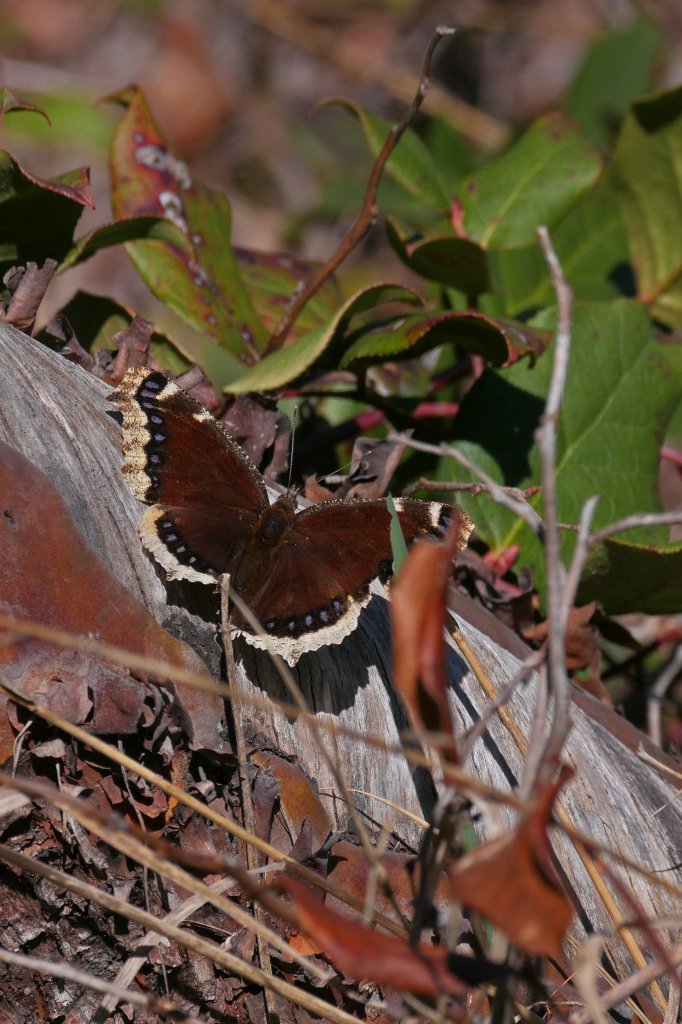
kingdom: Animalia
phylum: Arthropoda
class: Insecta
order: Lepidoptera
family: Nymphalidae
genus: Nymphalis
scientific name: Nymphalis antiopa
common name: Mourning Cloak
